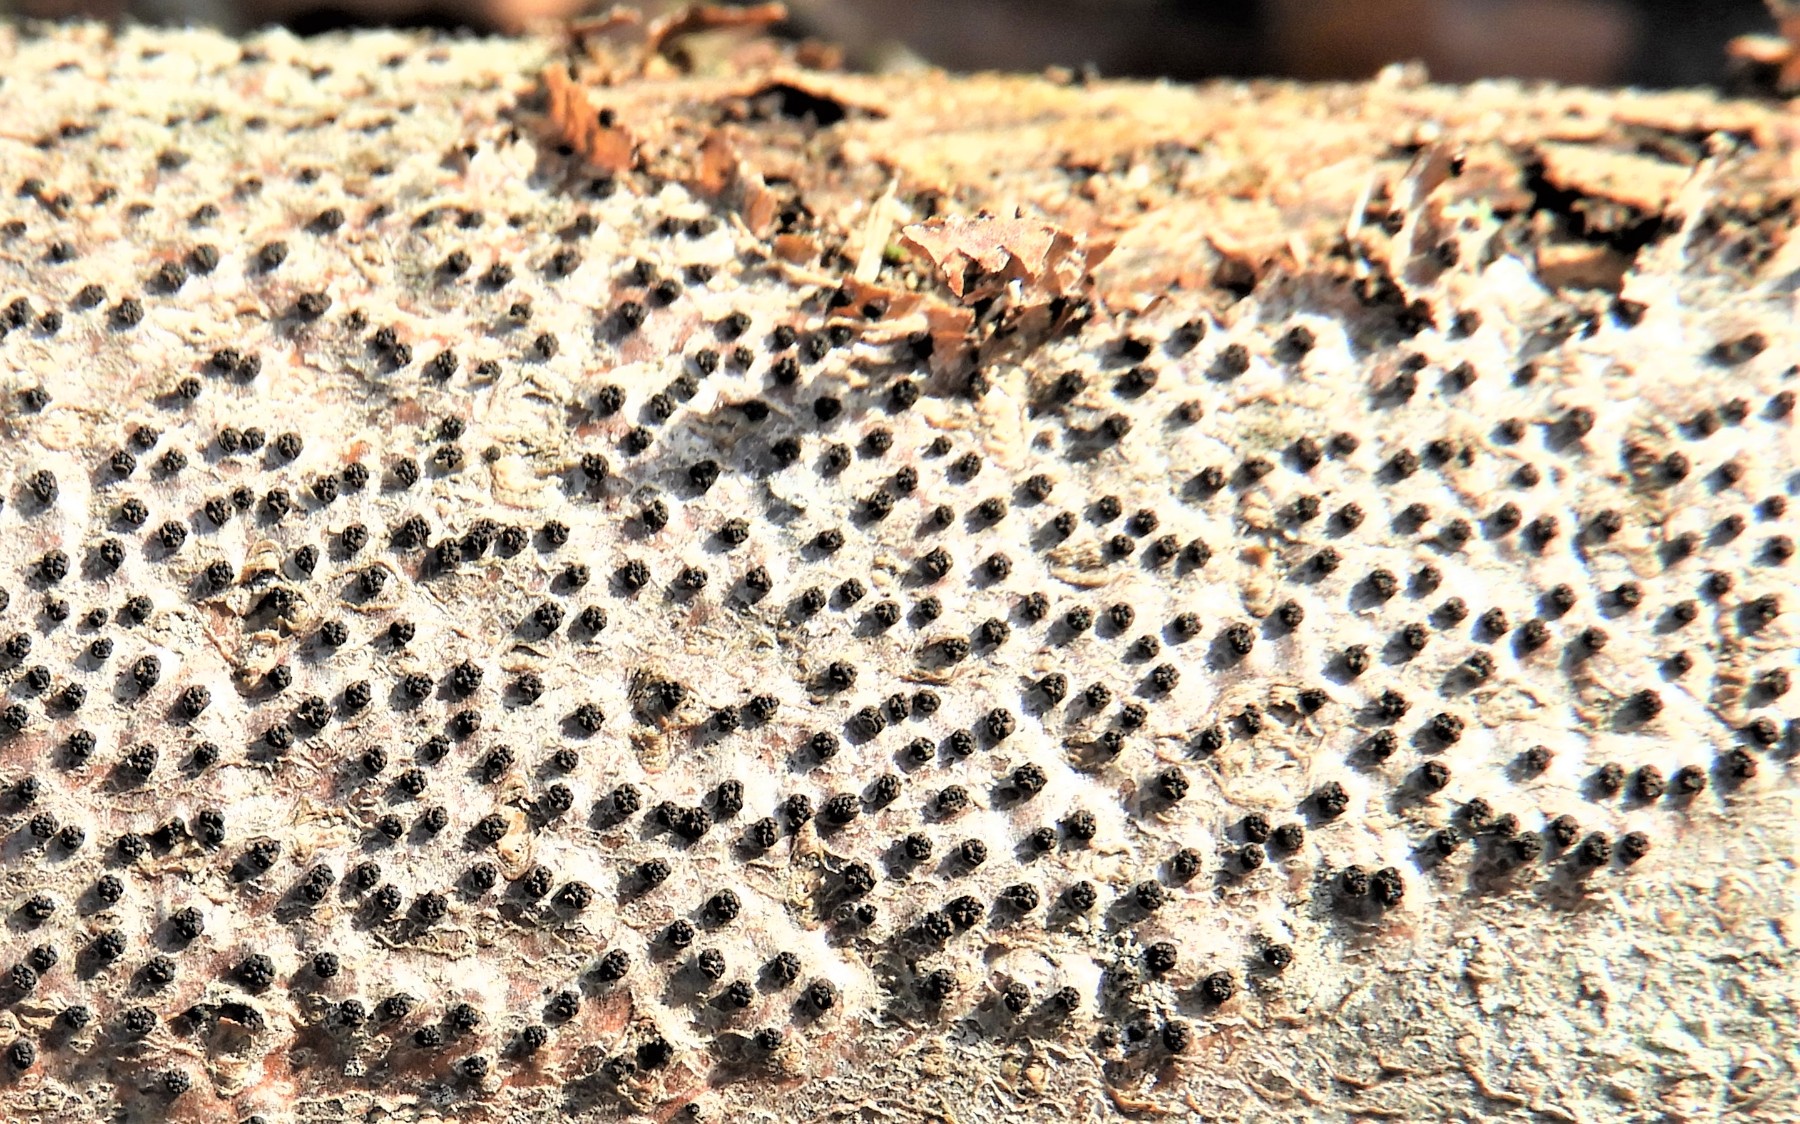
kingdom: Fungi
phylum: Ascomycota
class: Sordariomycetes
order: Diaporthales
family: Valsaceae
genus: Cytospora
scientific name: Cytospora
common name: kulknippe
